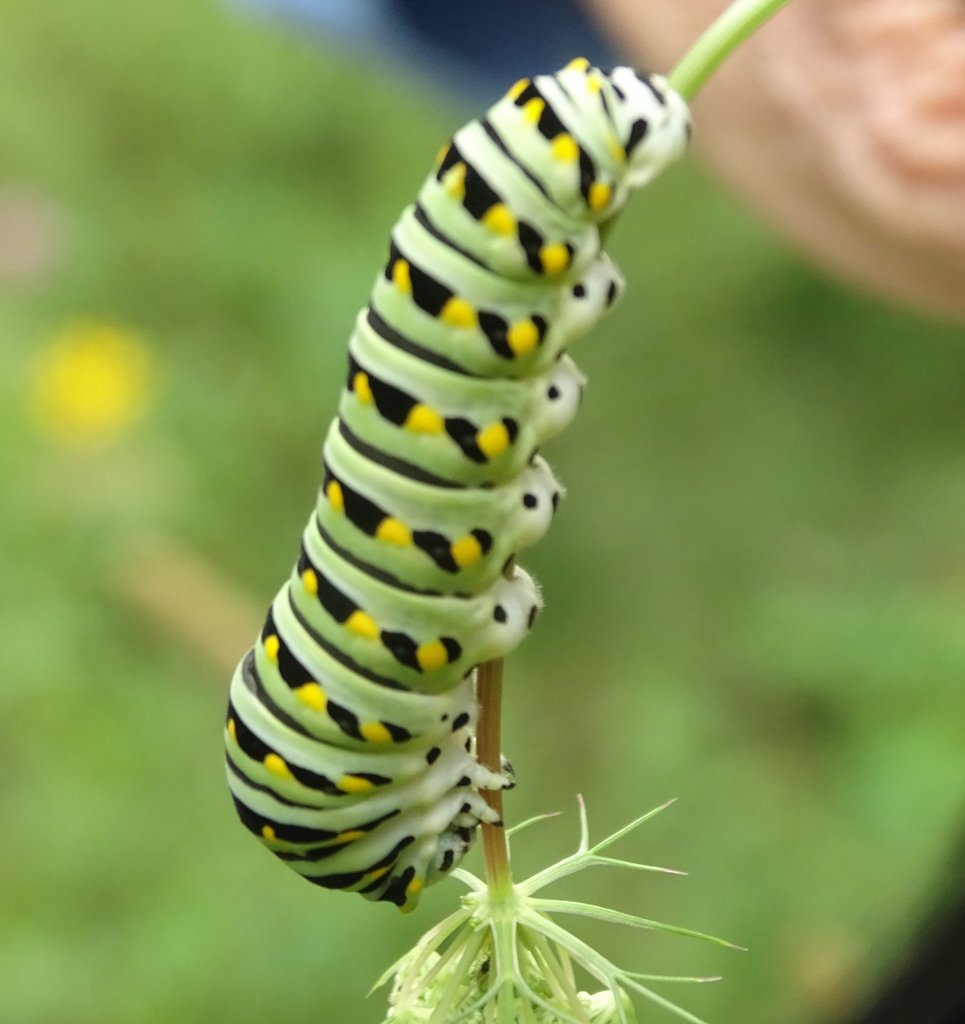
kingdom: Animalia
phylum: Arthropoda
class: Insecta
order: Lepidoptera
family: Papilionidae
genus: Papilio
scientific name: Papilio polyxenes
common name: Black Swallowtail
